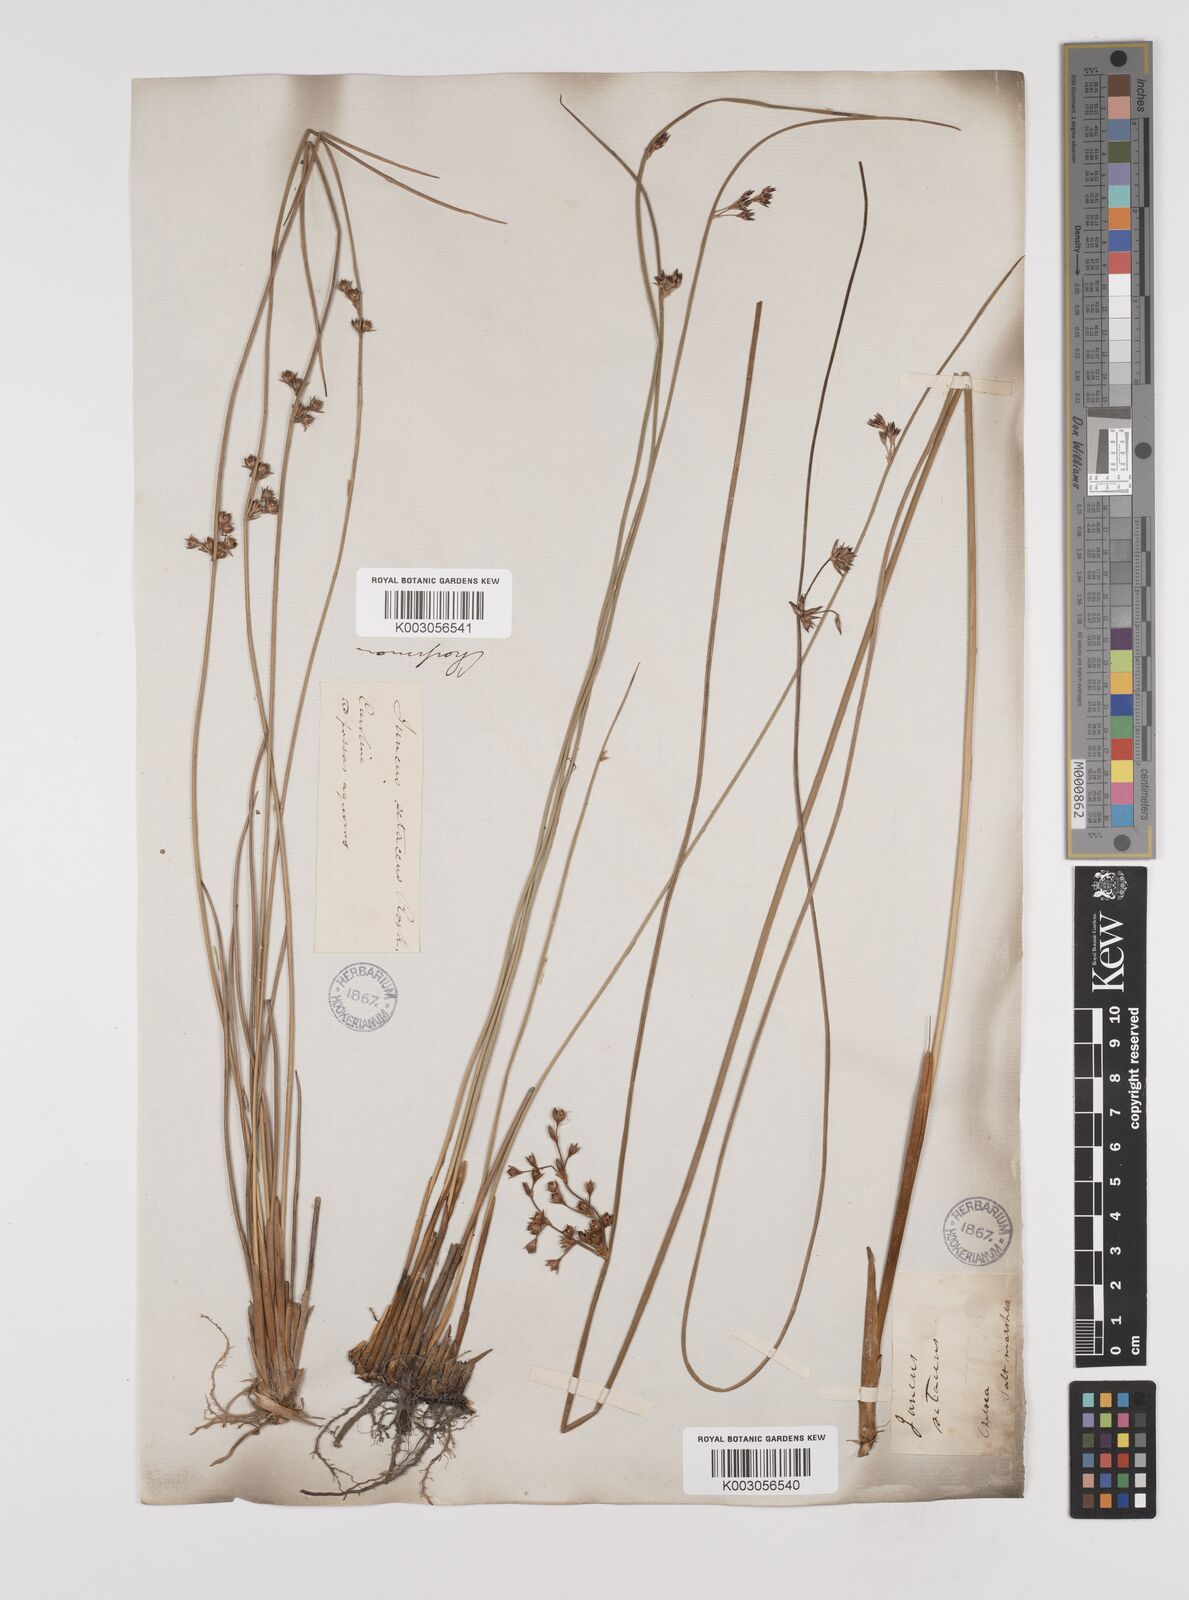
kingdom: Plantae
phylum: Tracheophyta
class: Liliopsida
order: Poales
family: Juncaceae
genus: Juncus
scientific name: Juncus balticus
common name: Baltic rush
